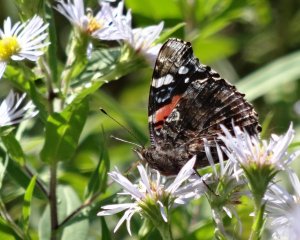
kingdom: Animalia
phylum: Arthropoda
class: Insecta
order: Lepidoptera
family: Nymphalidae
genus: Vanessa
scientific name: Vanessa atalanta
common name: Red Admiral
